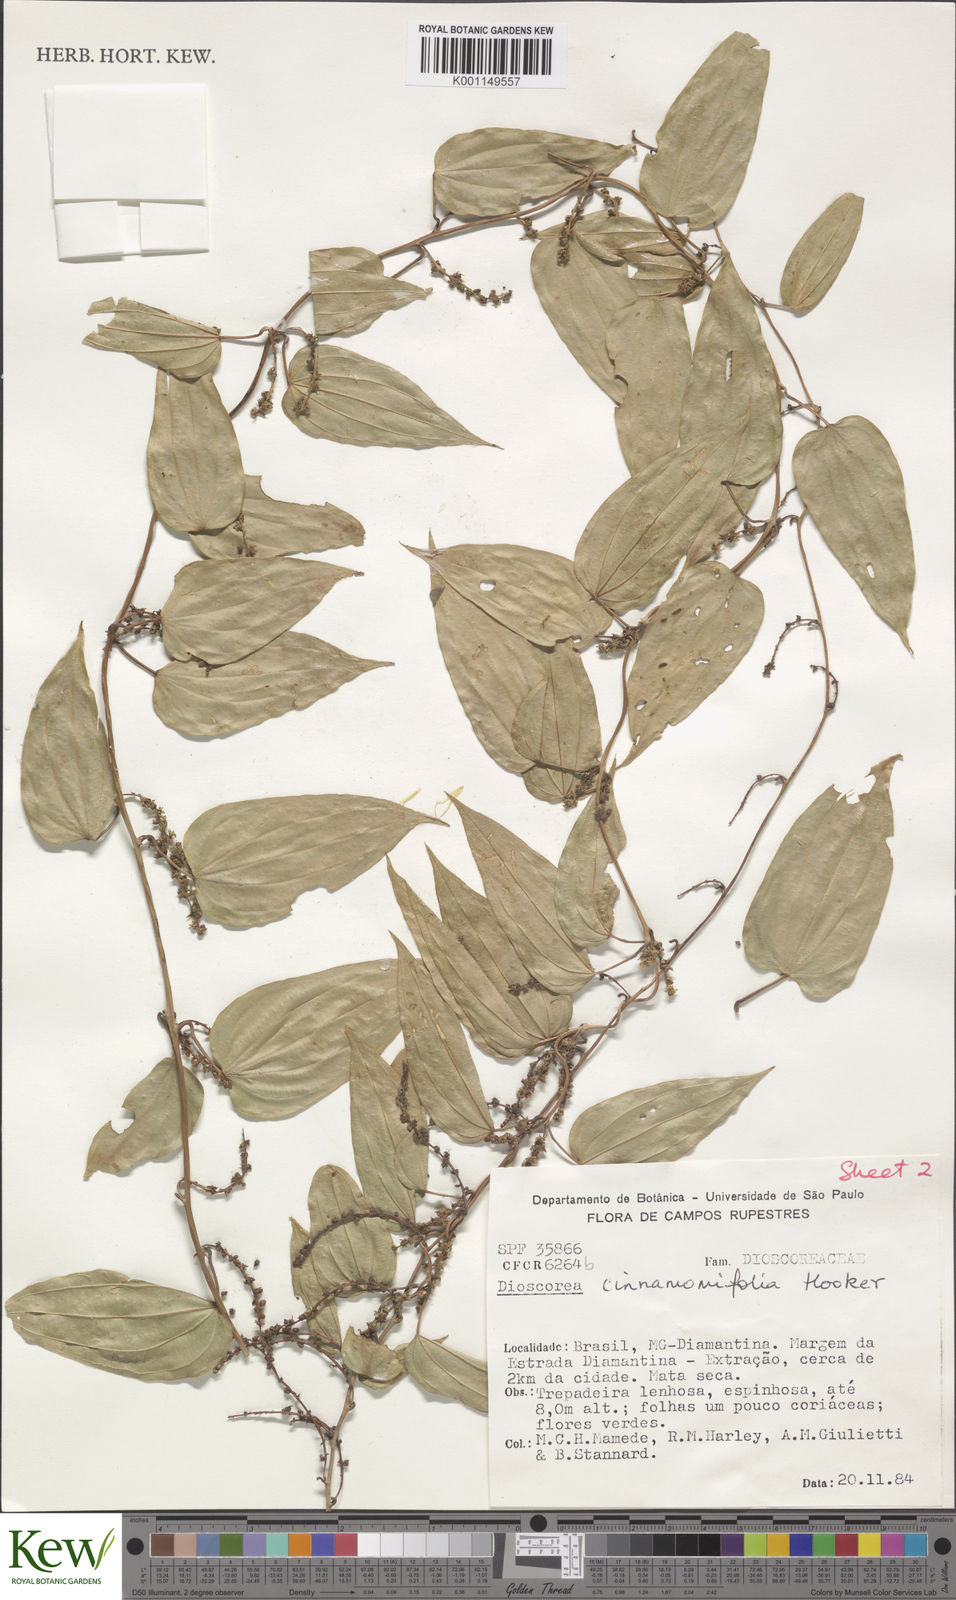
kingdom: Plantae
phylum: Tracheophyta
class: Liliopsida
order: Dioscoreales
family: Dioscoreaceae
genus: Dioscorea
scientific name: Dioscorea basiclavicaulis
